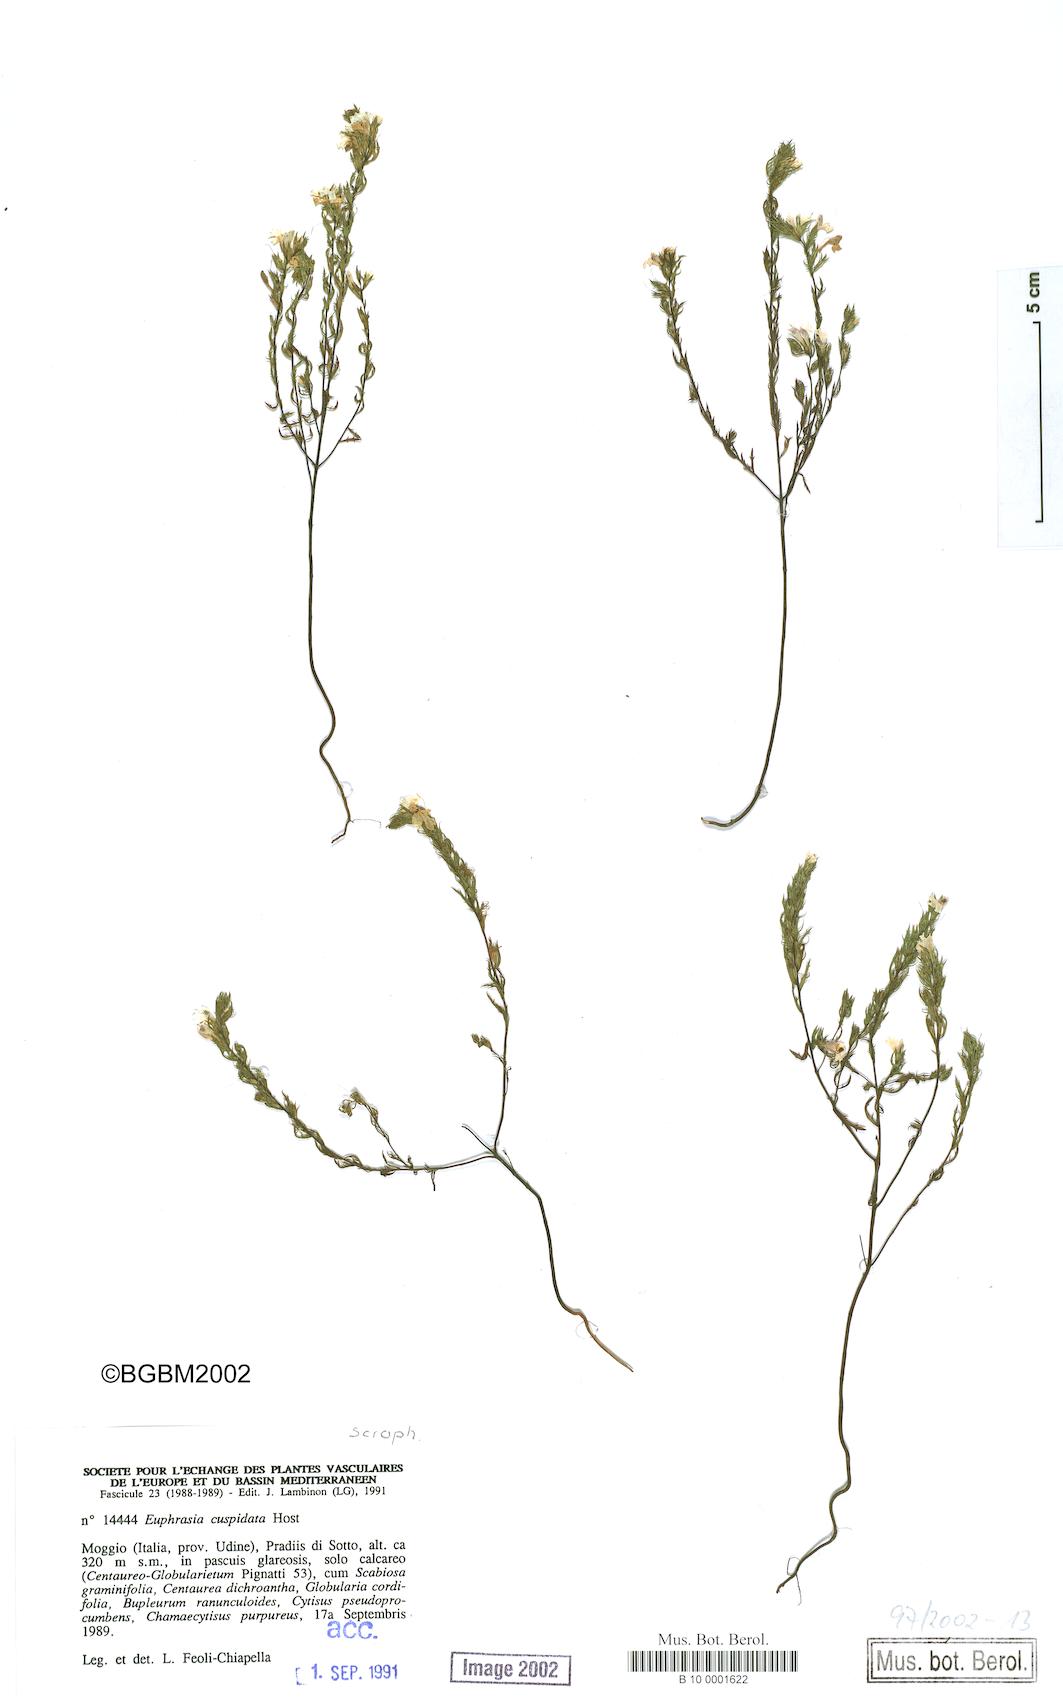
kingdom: Plantae
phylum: Tracheophyta
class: Magnoliopsida
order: Lamiales
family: Orobanchaceae
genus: Euphrasia
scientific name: Euphrasia cuspidata
